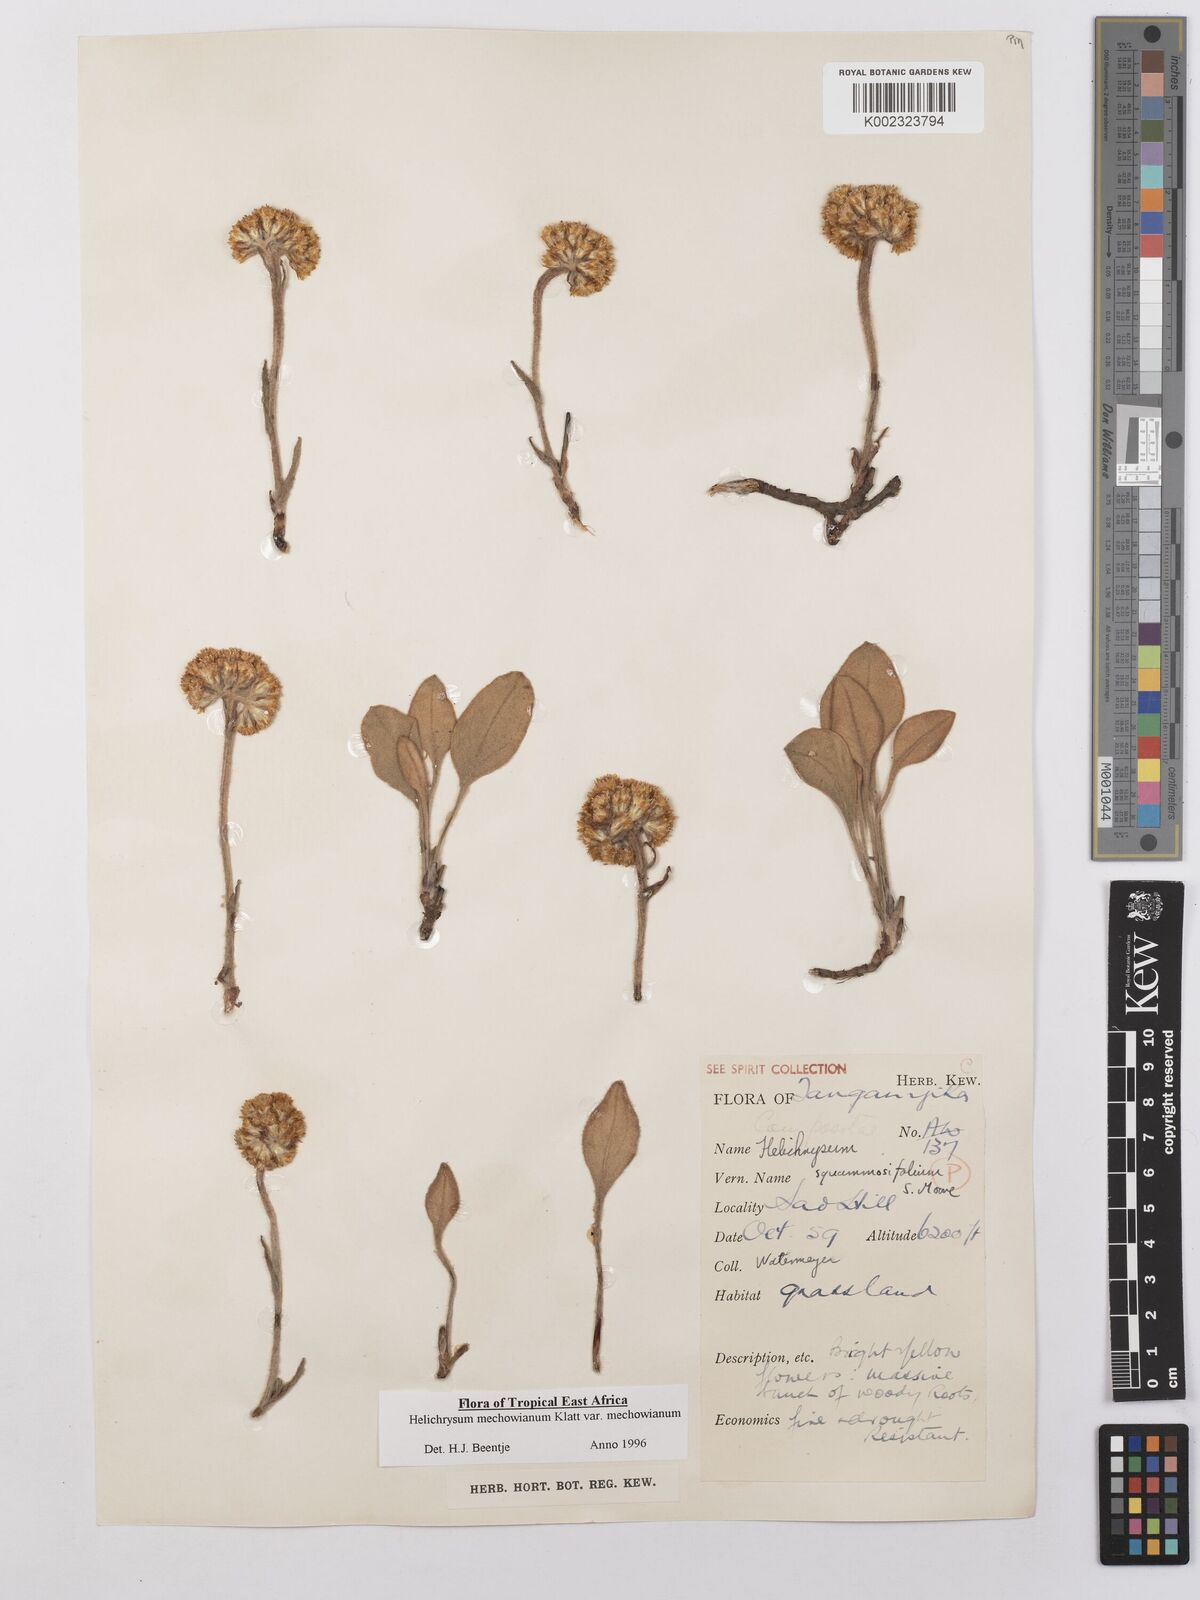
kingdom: Plantae
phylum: Tracheophyta
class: Magnoliopsida
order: Asterales
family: Asteraceae
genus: Helichrysum
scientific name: Helichrysum mechowianum
